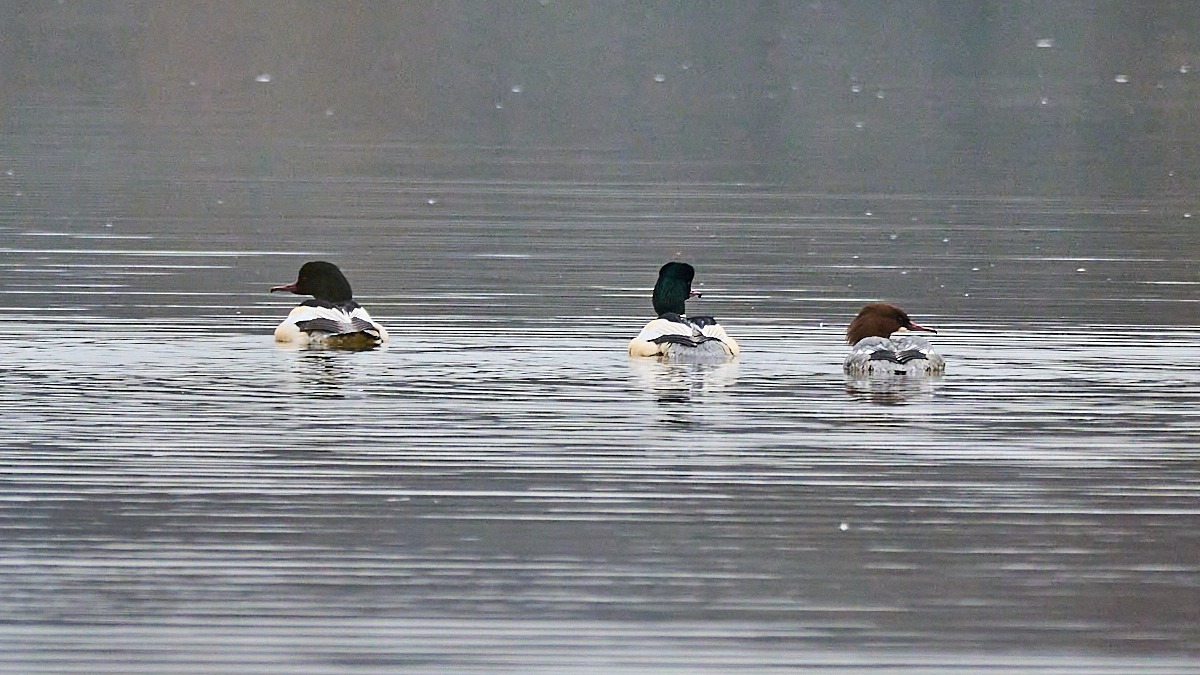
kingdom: Animalia
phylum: Chordata
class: Aves
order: Anseriformes
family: Anatidae
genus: Mergus
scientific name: Mergus merganser
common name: Stor skallesluger
